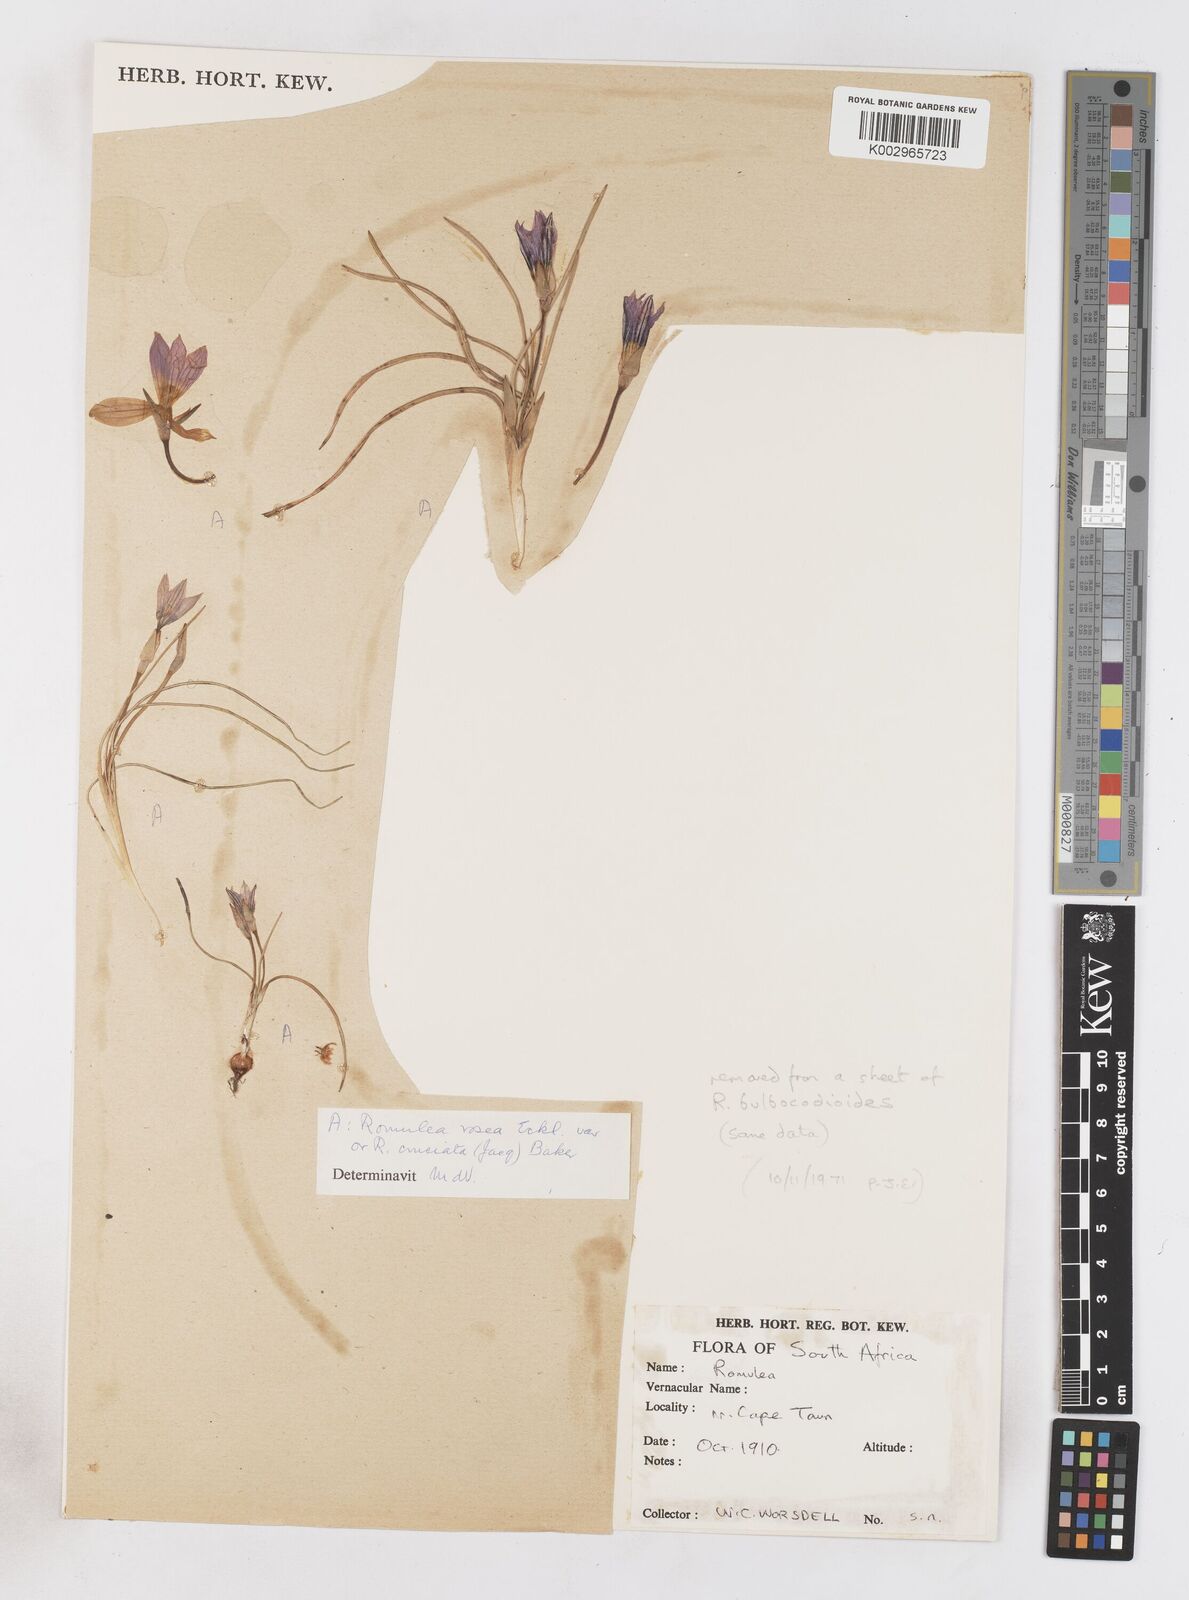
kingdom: Plantae
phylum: Tracheophyta
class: Liliopsida
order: Asparagales
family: Iridaceae
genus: Romulea
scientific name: Romulea rosea
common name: Oniongrass
